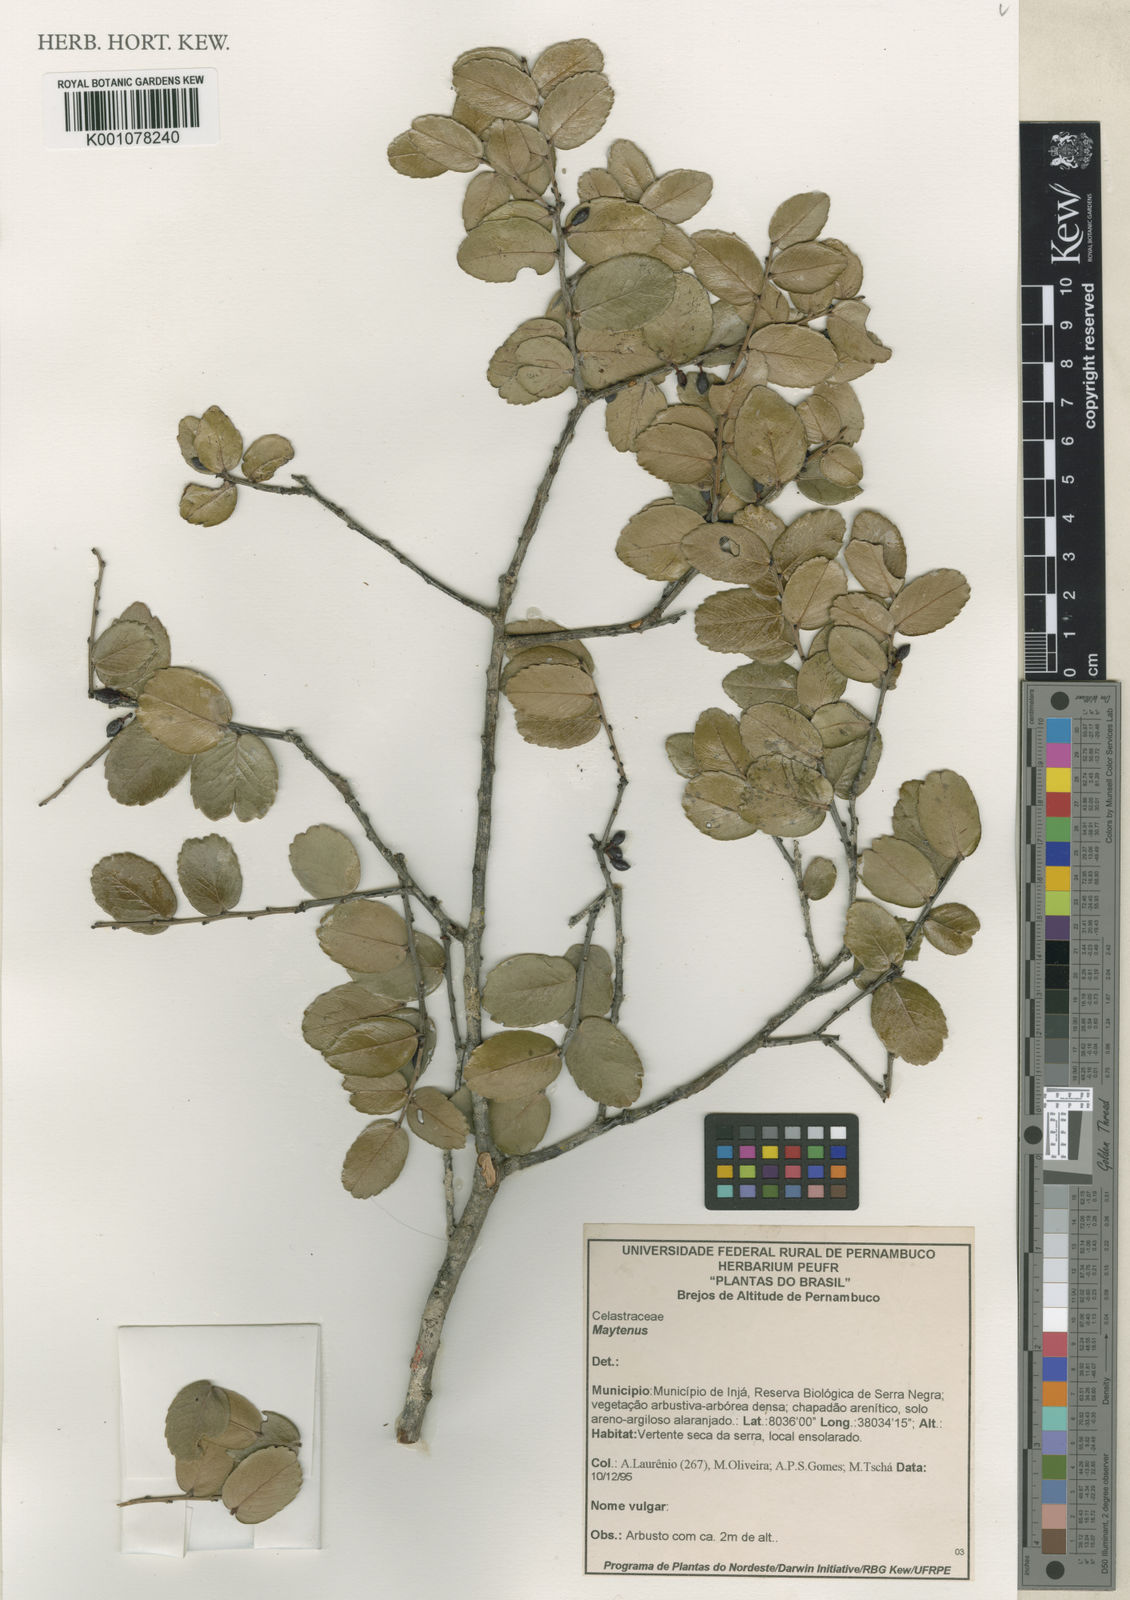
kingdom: Plantae
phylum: Tracheophyta
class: Magnoliopsida
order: Celastrales
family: Celastraceae
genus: Maytenus
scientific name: Maytenus
